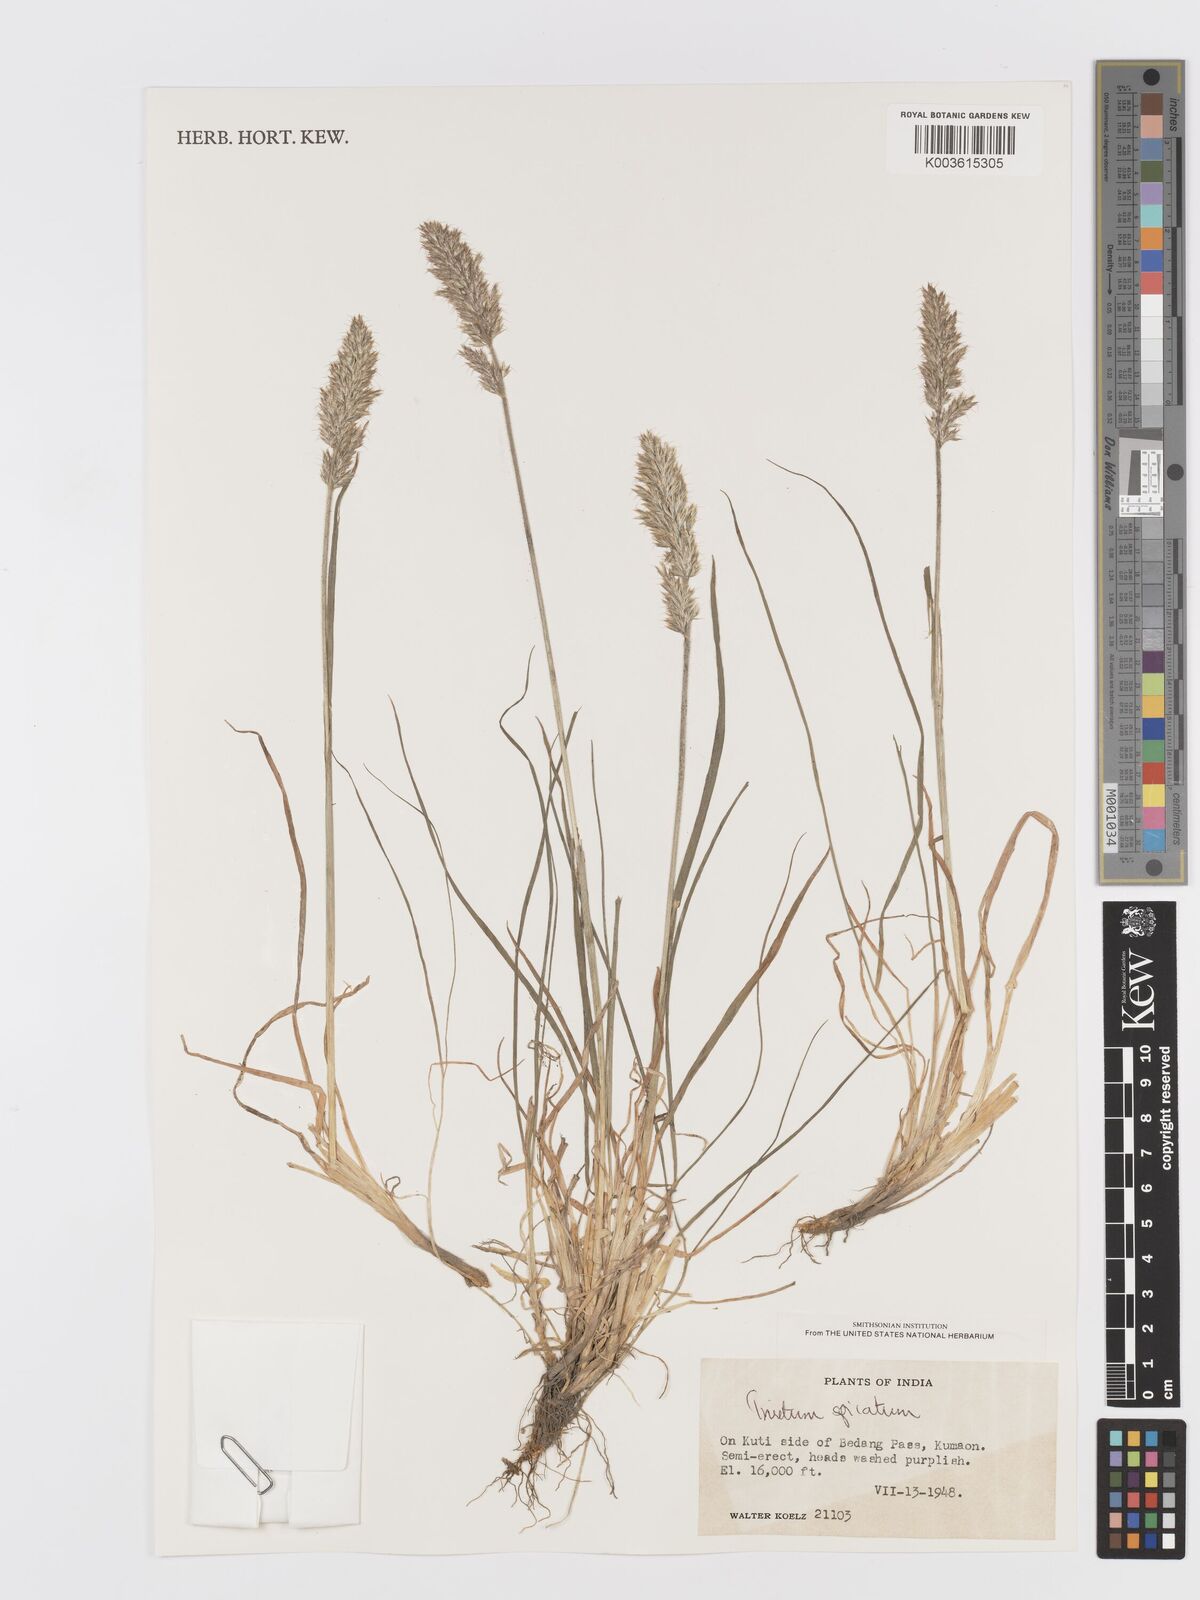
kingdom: Plantae
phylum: Tracheophyta
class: Liliopsida
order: Poales
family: Poaceae
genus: Koeleria
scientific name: Koeleria spicata
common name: Mountain trisetum
